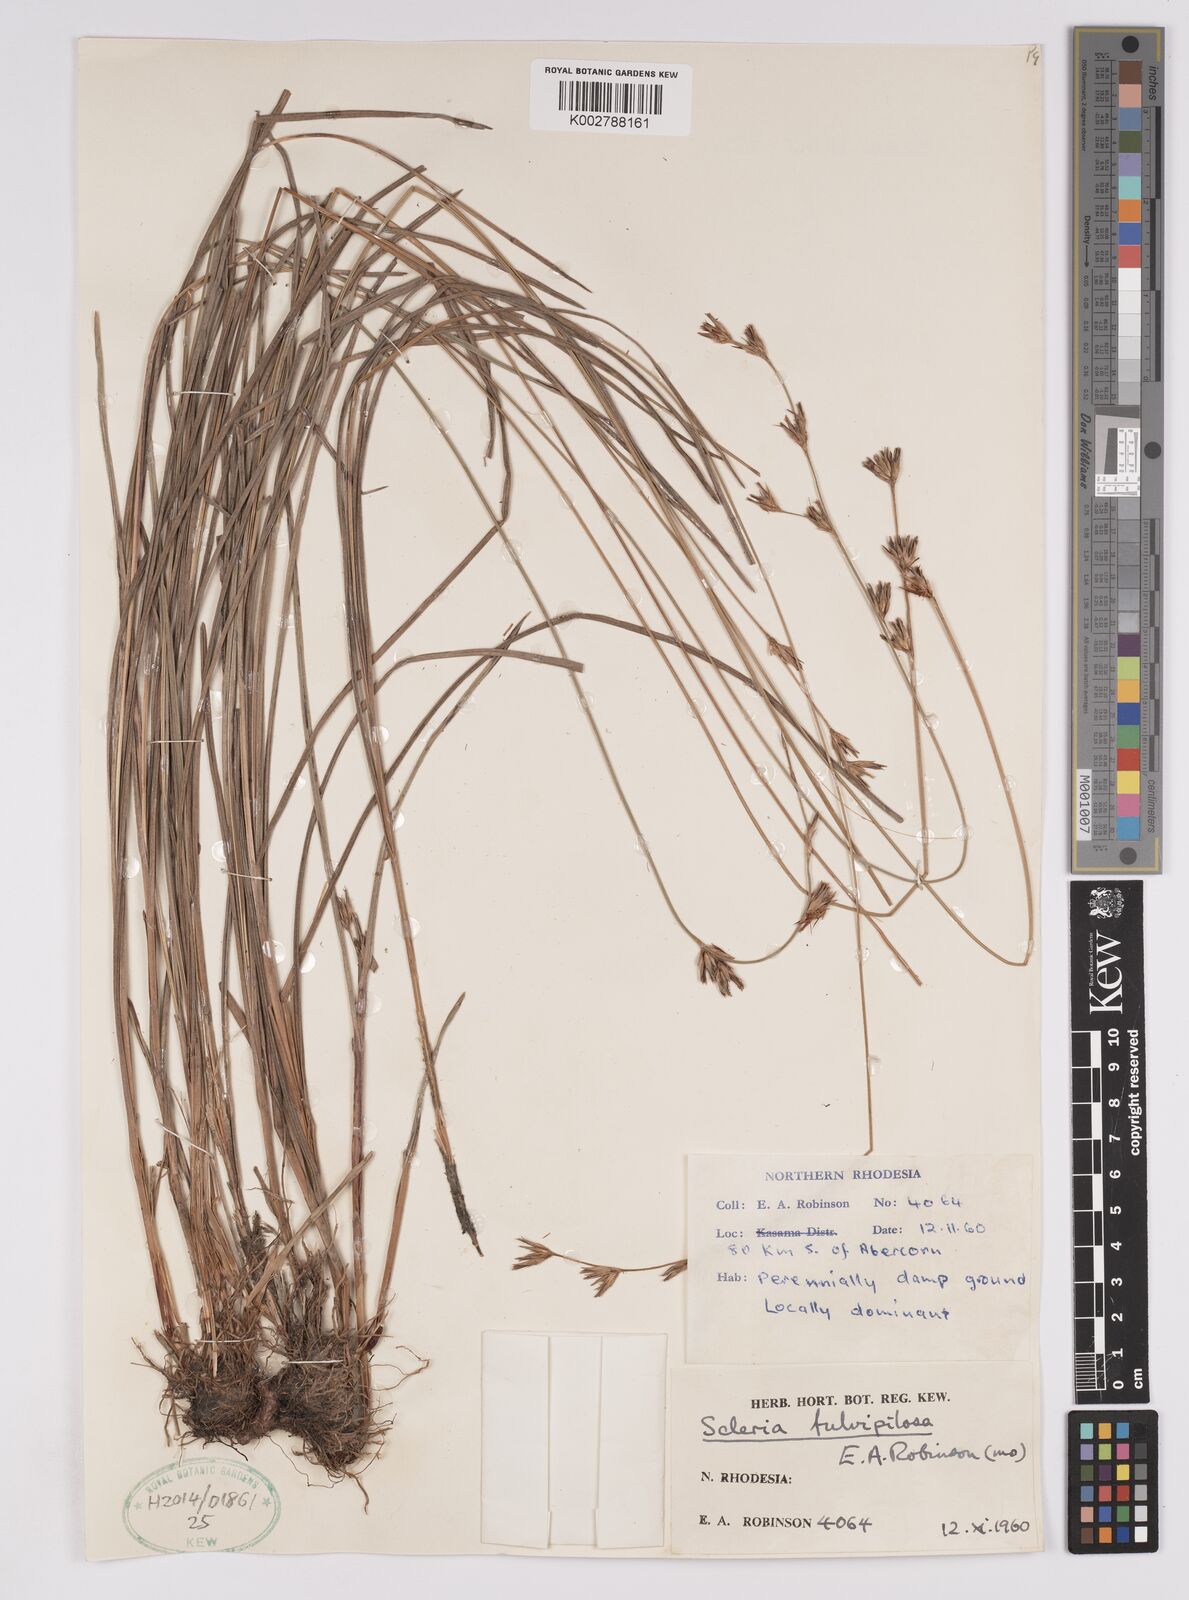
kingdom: Plantae
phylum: Tracheophyta
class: Liliopsida
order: Poales
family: Cyperaceae
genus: Scleria
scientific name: Scleria fulvipilosa
